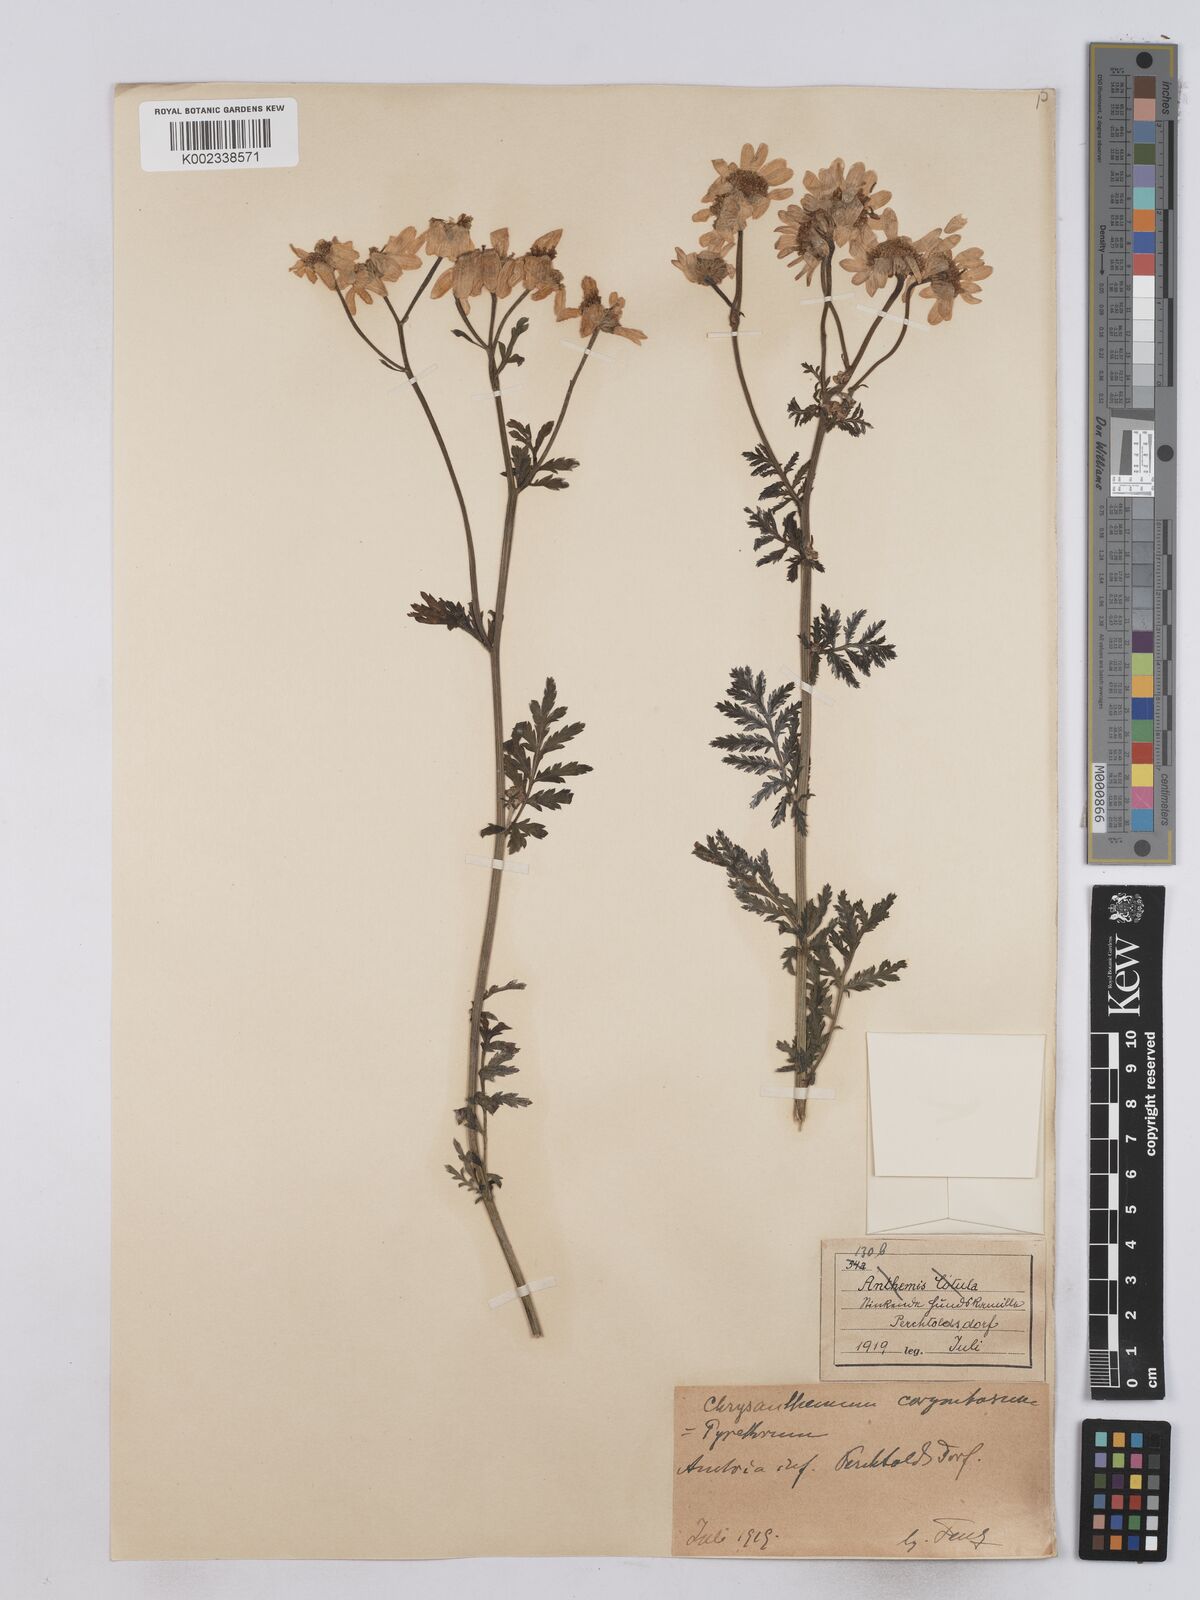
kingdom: Plantae
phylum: Tracheophyta
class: Magnoliopsida
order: Asterales
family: Asteraceae
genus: Tanacetum
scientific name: Tanacetum corymbosum
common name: Scentless feverfew
